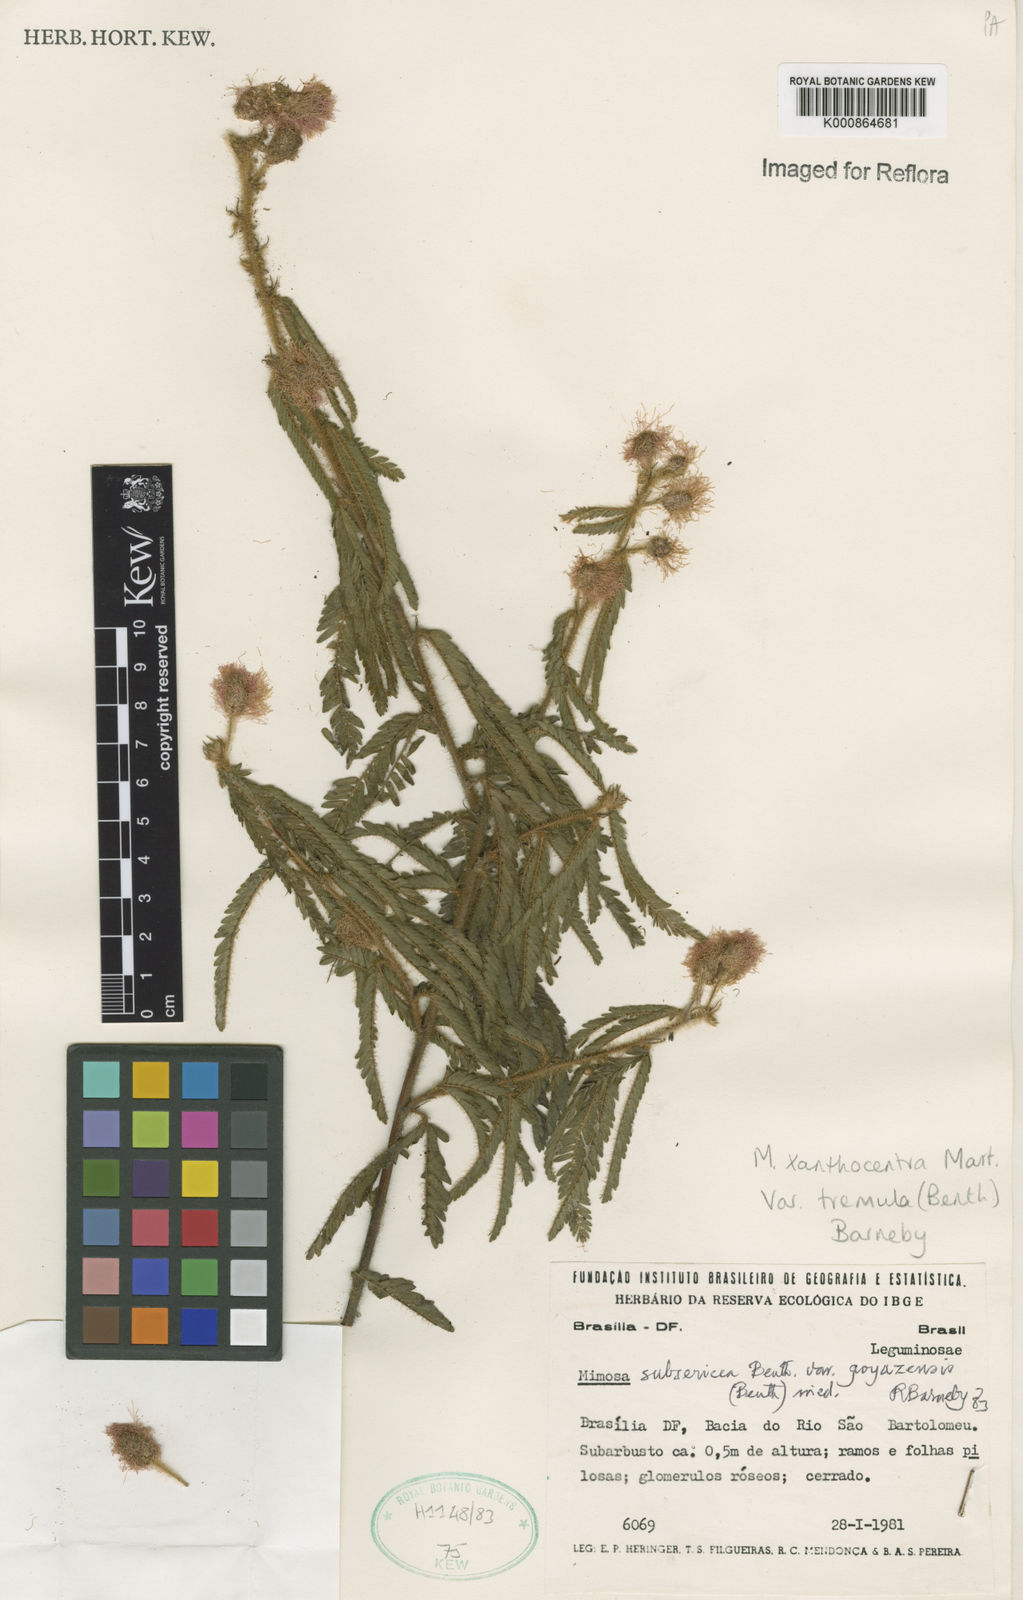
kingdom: Plantae
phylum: Tracheophyta
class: Magnoliopsida
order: Fabales
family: Fabaceae
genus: Mimosa
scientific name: Mimosa xanthocentra
